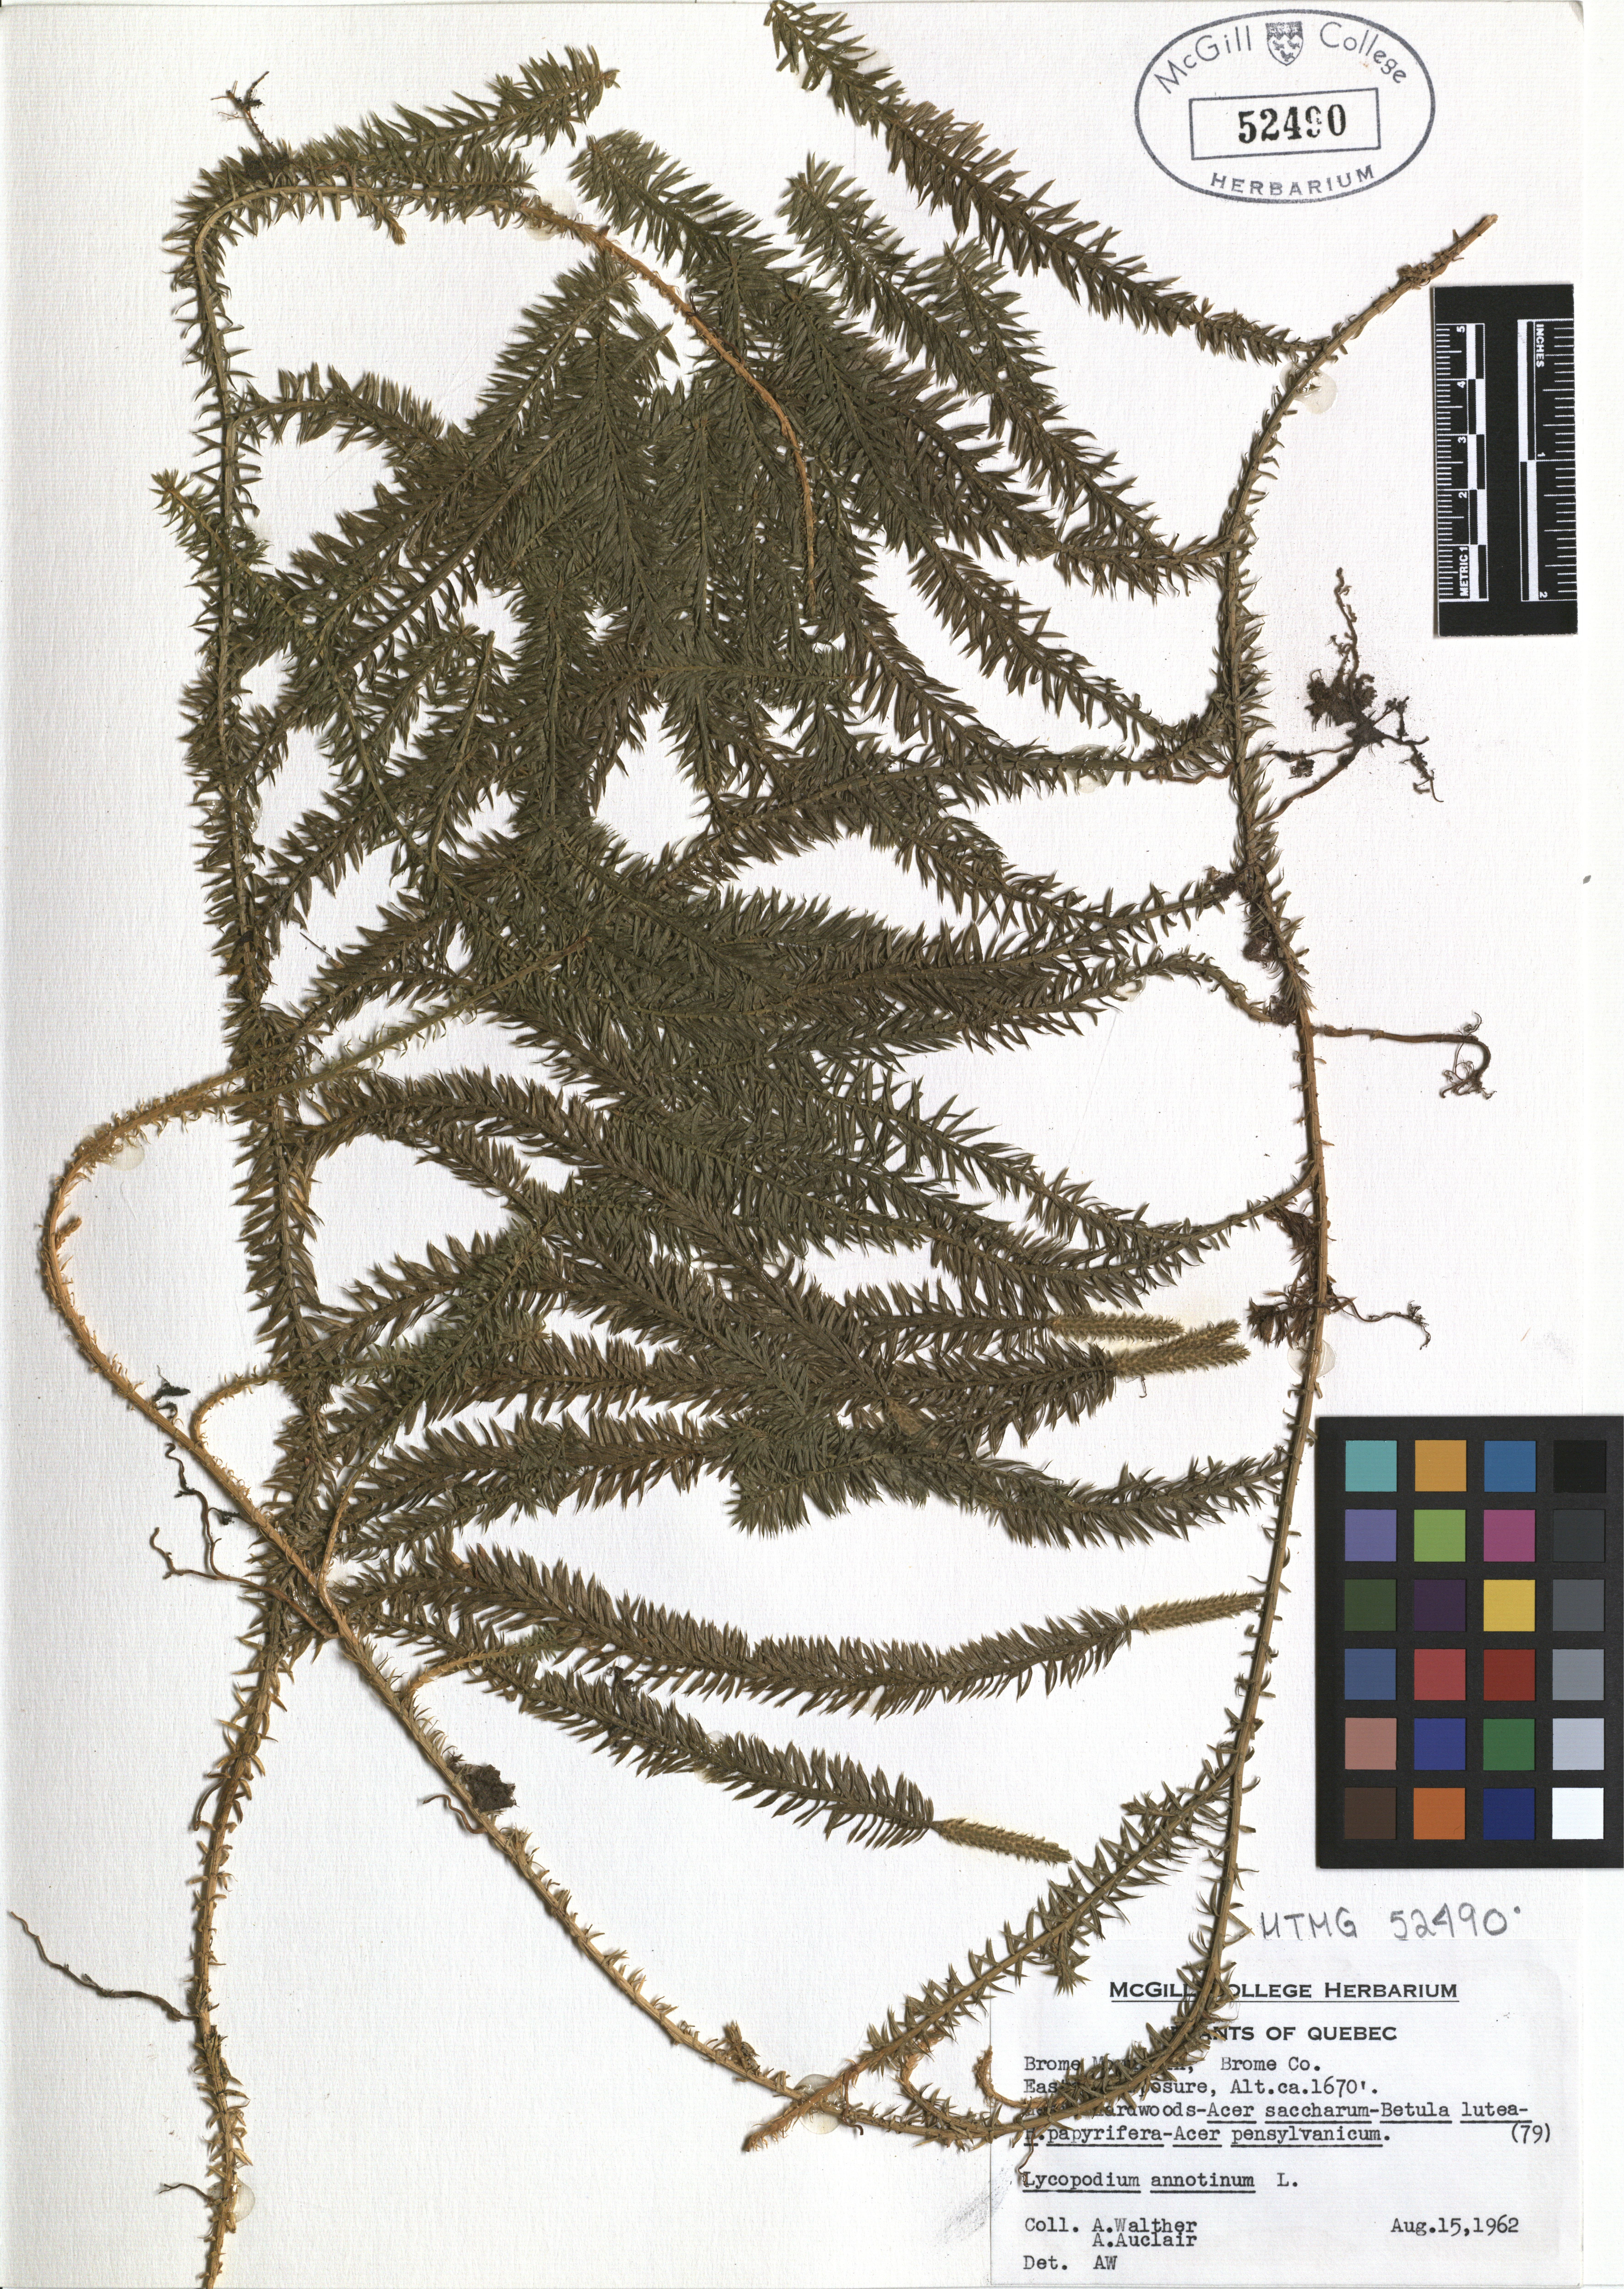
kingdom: Plantae
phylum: Tracheophyta
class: Lycopodiopsida
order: Lycopodiales
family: Lycopodiaceae
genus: Spinulum
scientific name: Spinulum annotinum
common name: Interrupted club-moss
